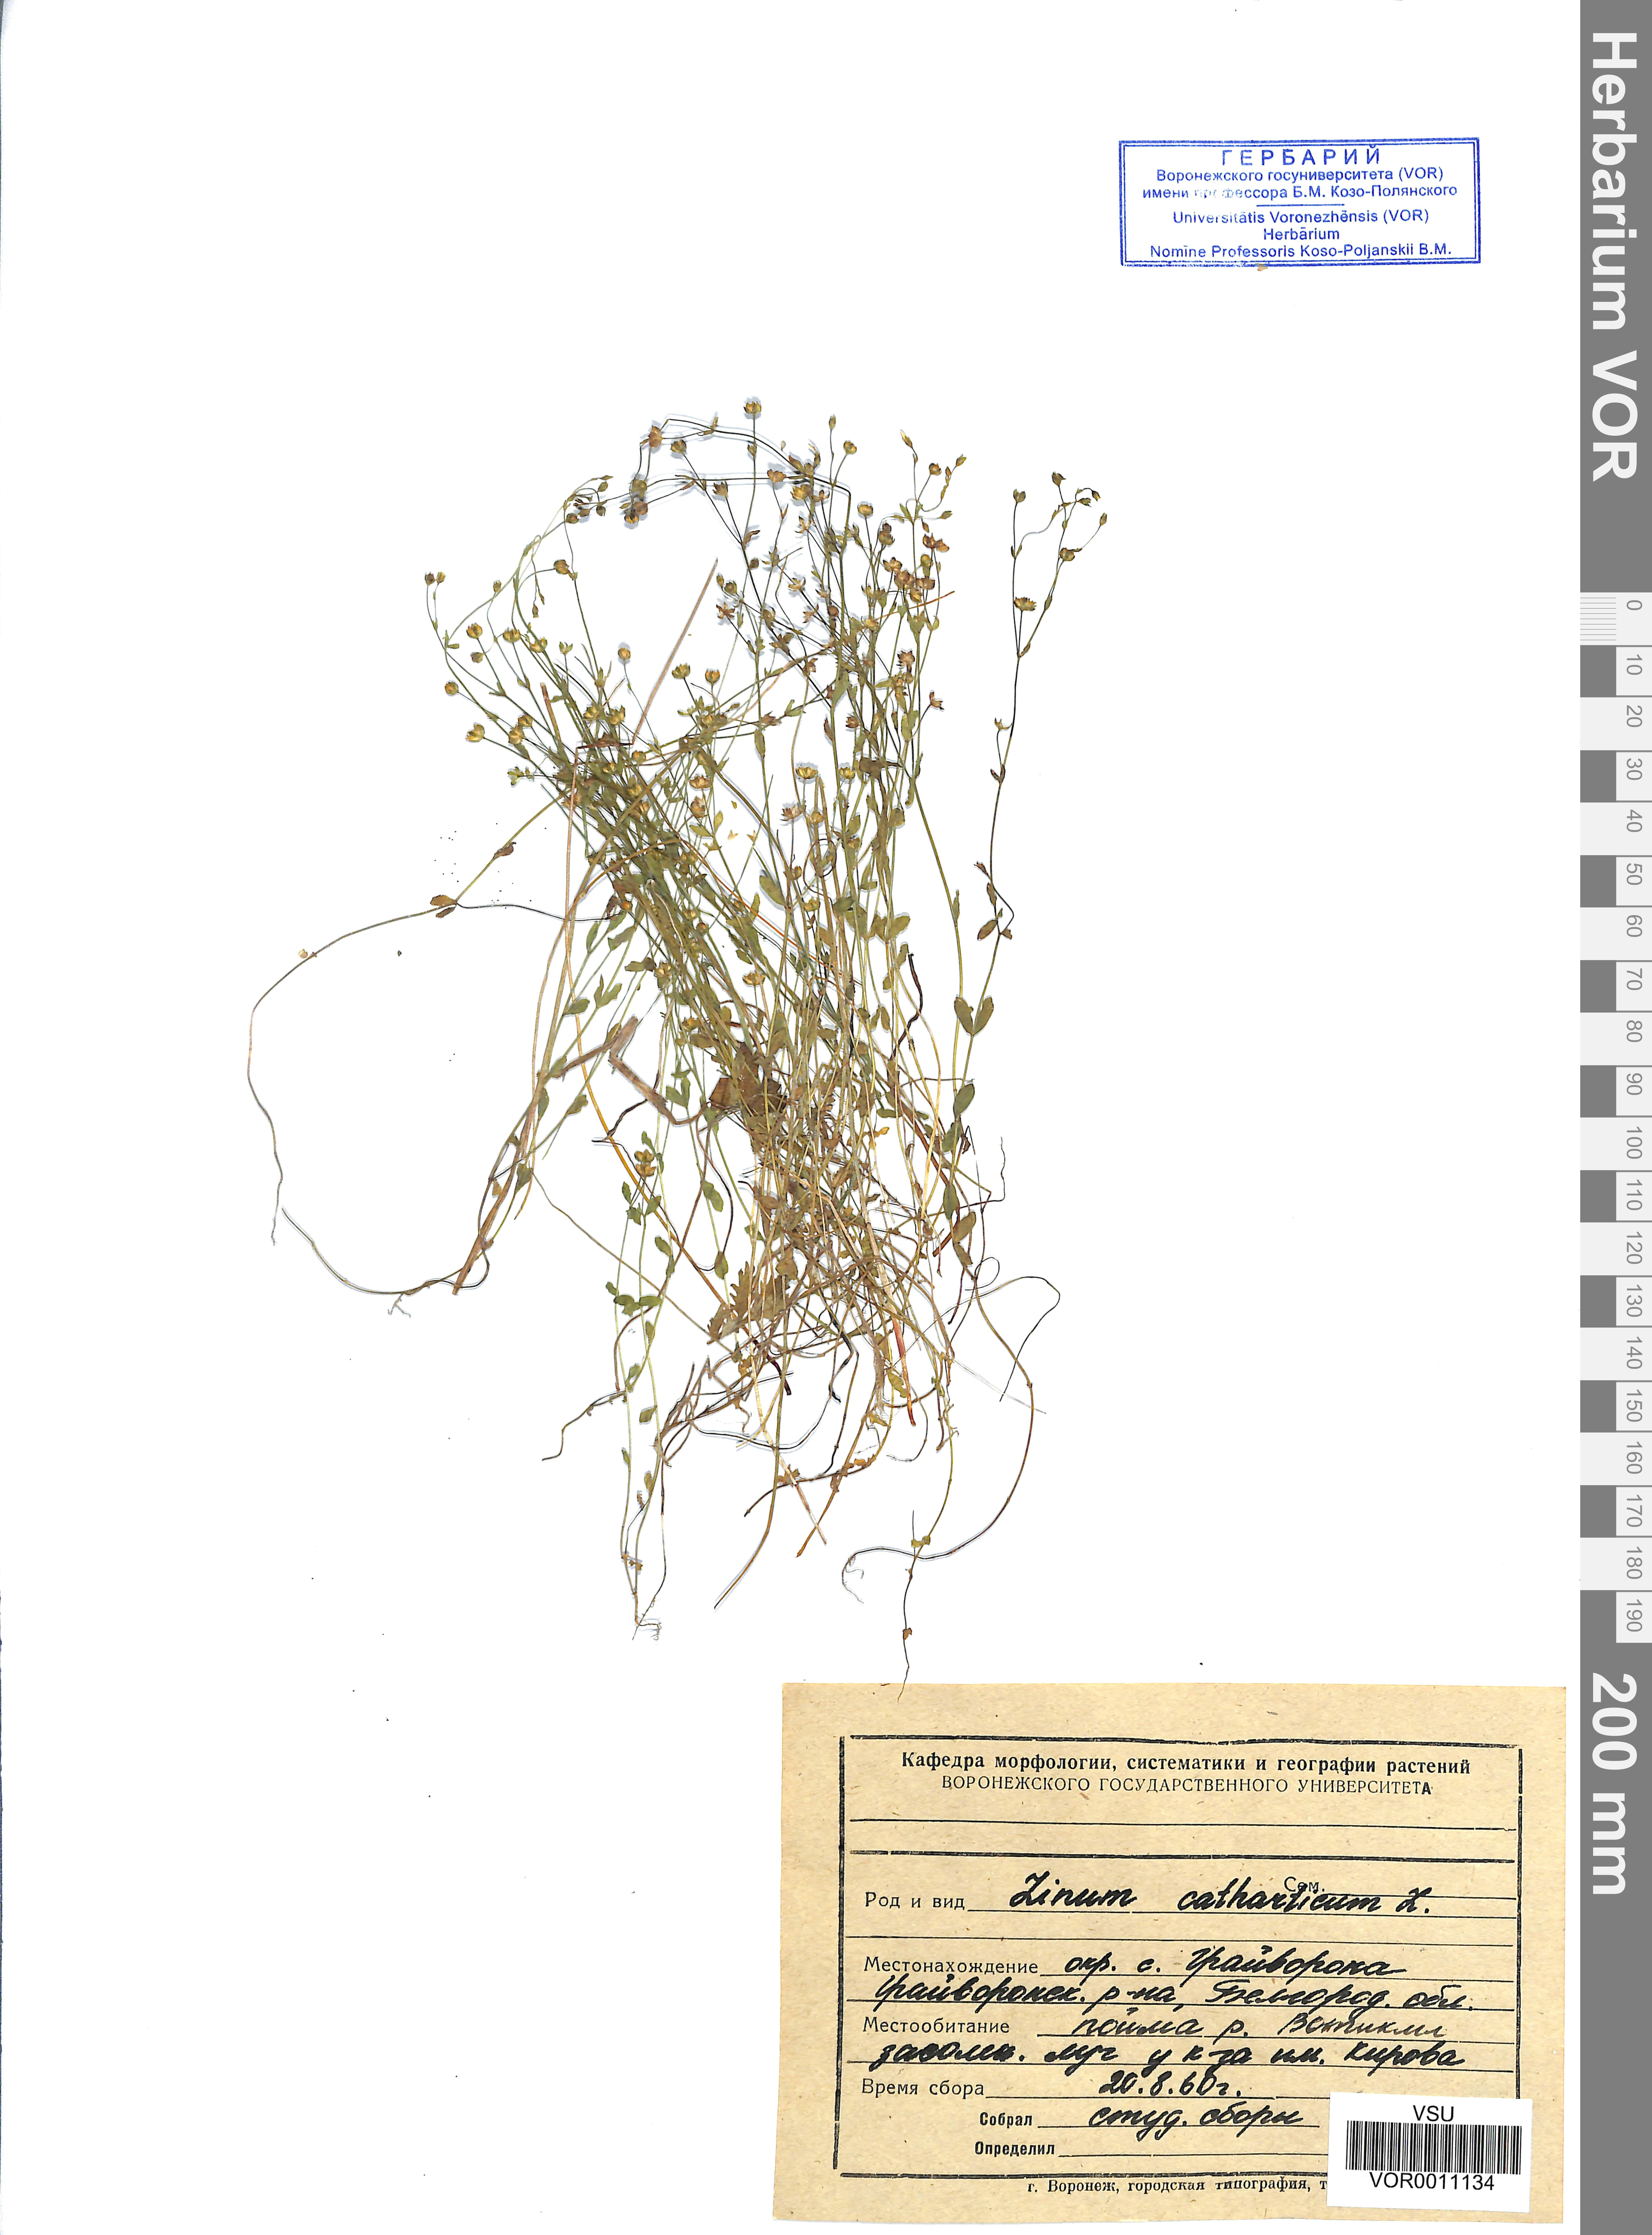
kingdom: Plantae
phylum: Tracheophyta
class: Magnoliopsida
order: Malpighiales
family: Linaceae
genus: Linum
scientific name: Linum catharticum
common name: Fairy flax
